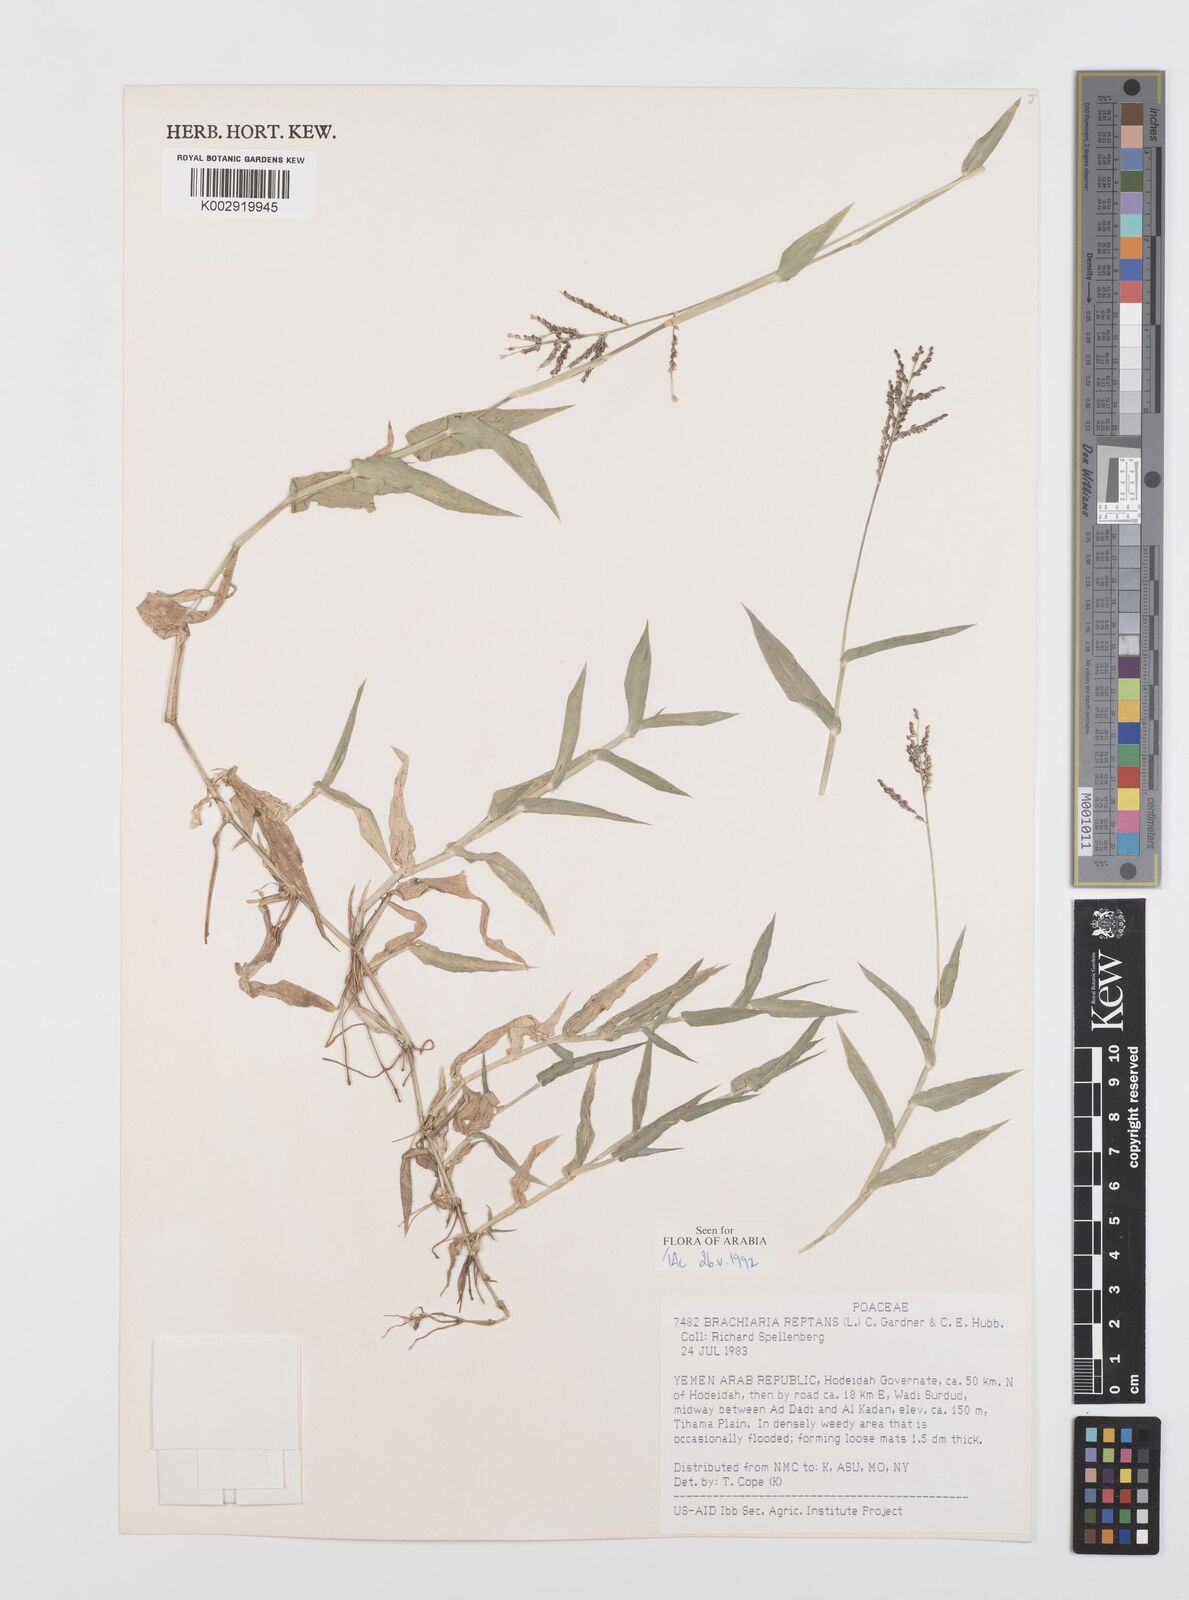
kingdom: Plantae
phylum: Tracheophyta
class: Liliopsida
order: Poales
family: Poaceae
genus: Urochloa
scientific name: Urochloa reptans
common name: Sprawling signalgrass
